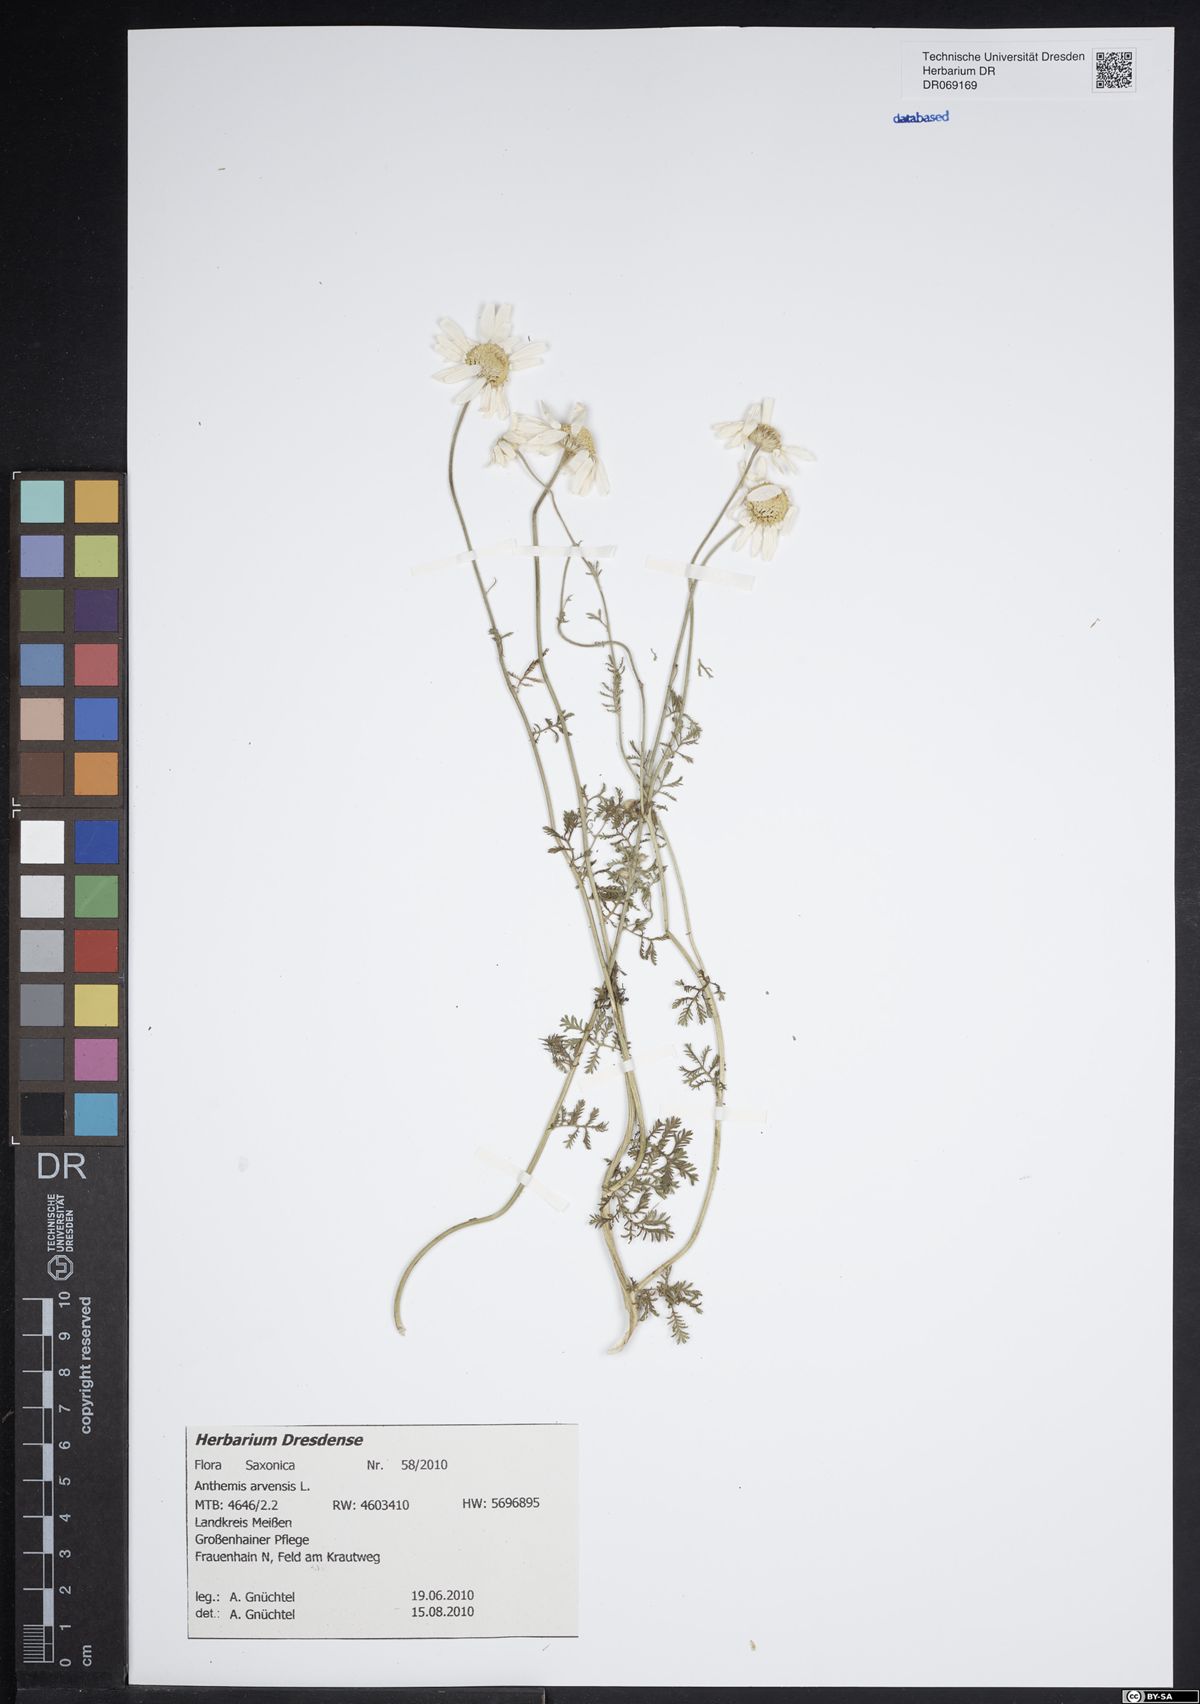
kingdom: Plantae
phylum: Tracheophyta
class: Magnoliopsida
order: Asterales
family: Asteraceae
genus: Anthemis
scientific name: Anthemis arvensis
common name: Corn chamomile
